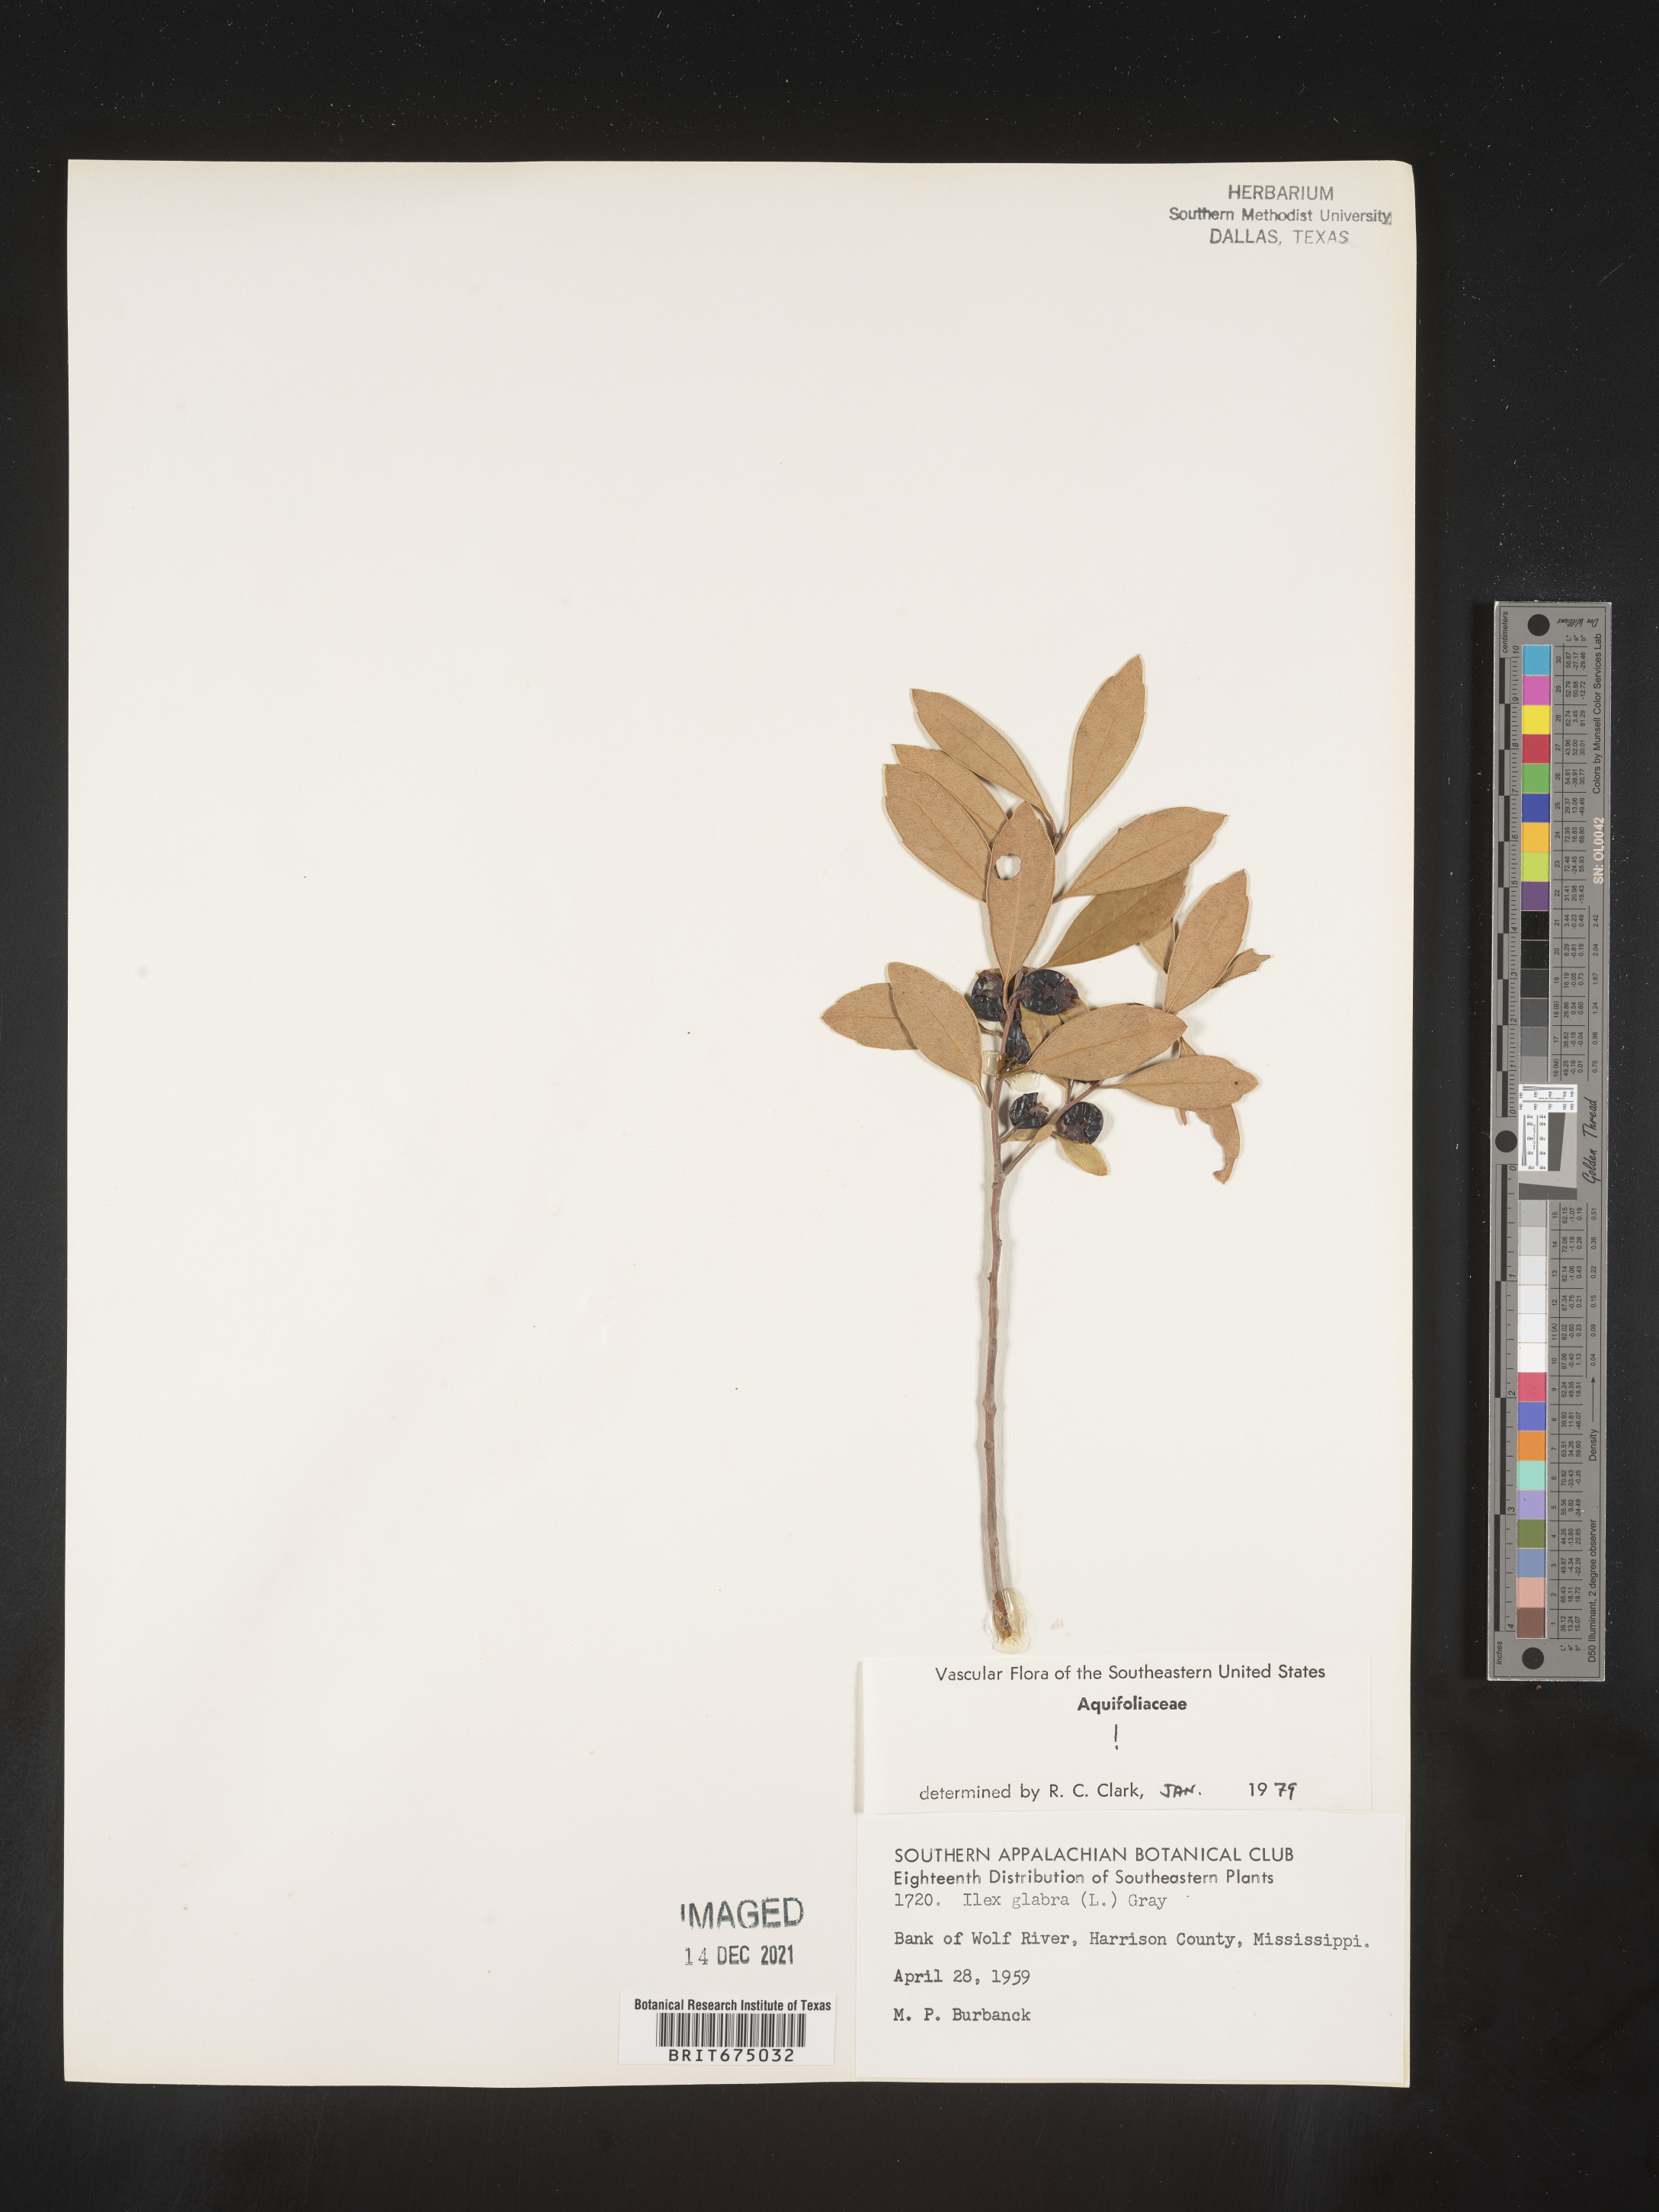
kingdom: Plantae
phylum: Tracheophyta
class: Magnoliopsida
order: Aquifoliales
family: Aquifoliaceae
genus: Ilex
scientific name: Ilex glabra
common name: Bitter gallberry
